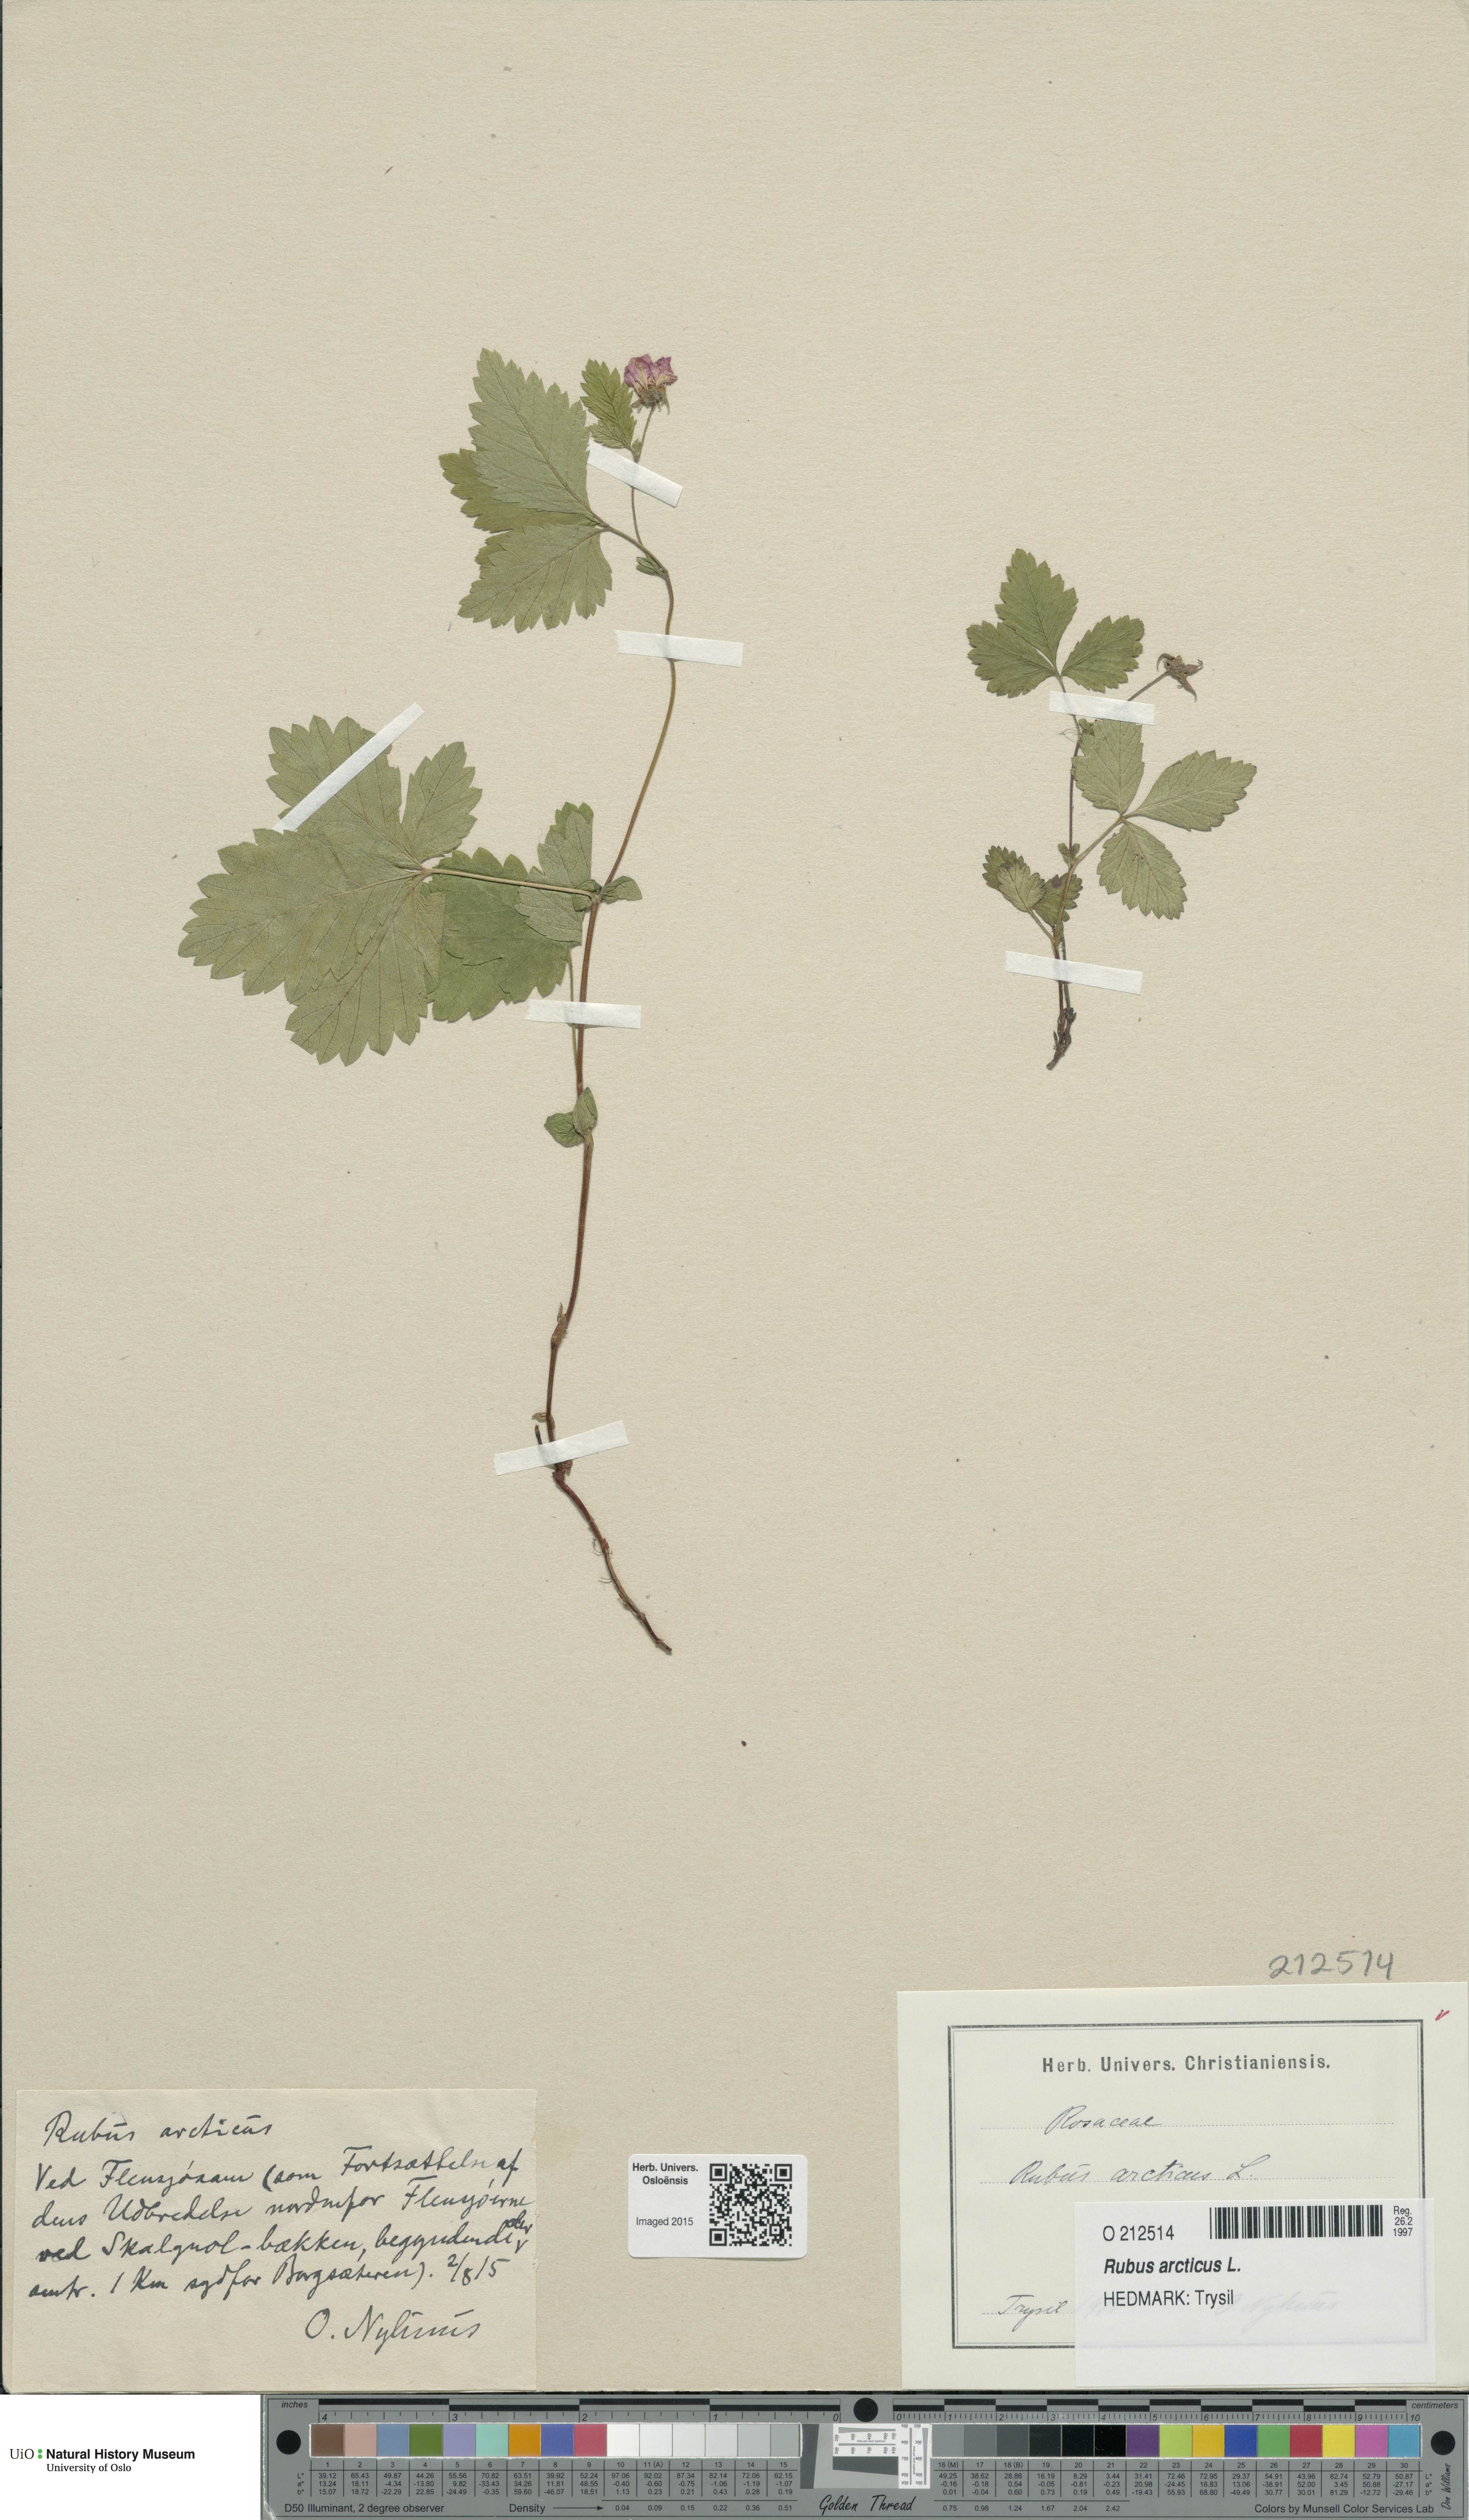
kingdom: Plantae
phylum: Tracheophyta
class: Magnoliopsida
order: Rosales
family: Rosaceae
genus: Rubus
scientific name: Rubus arcticus
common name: Arctic bramble
